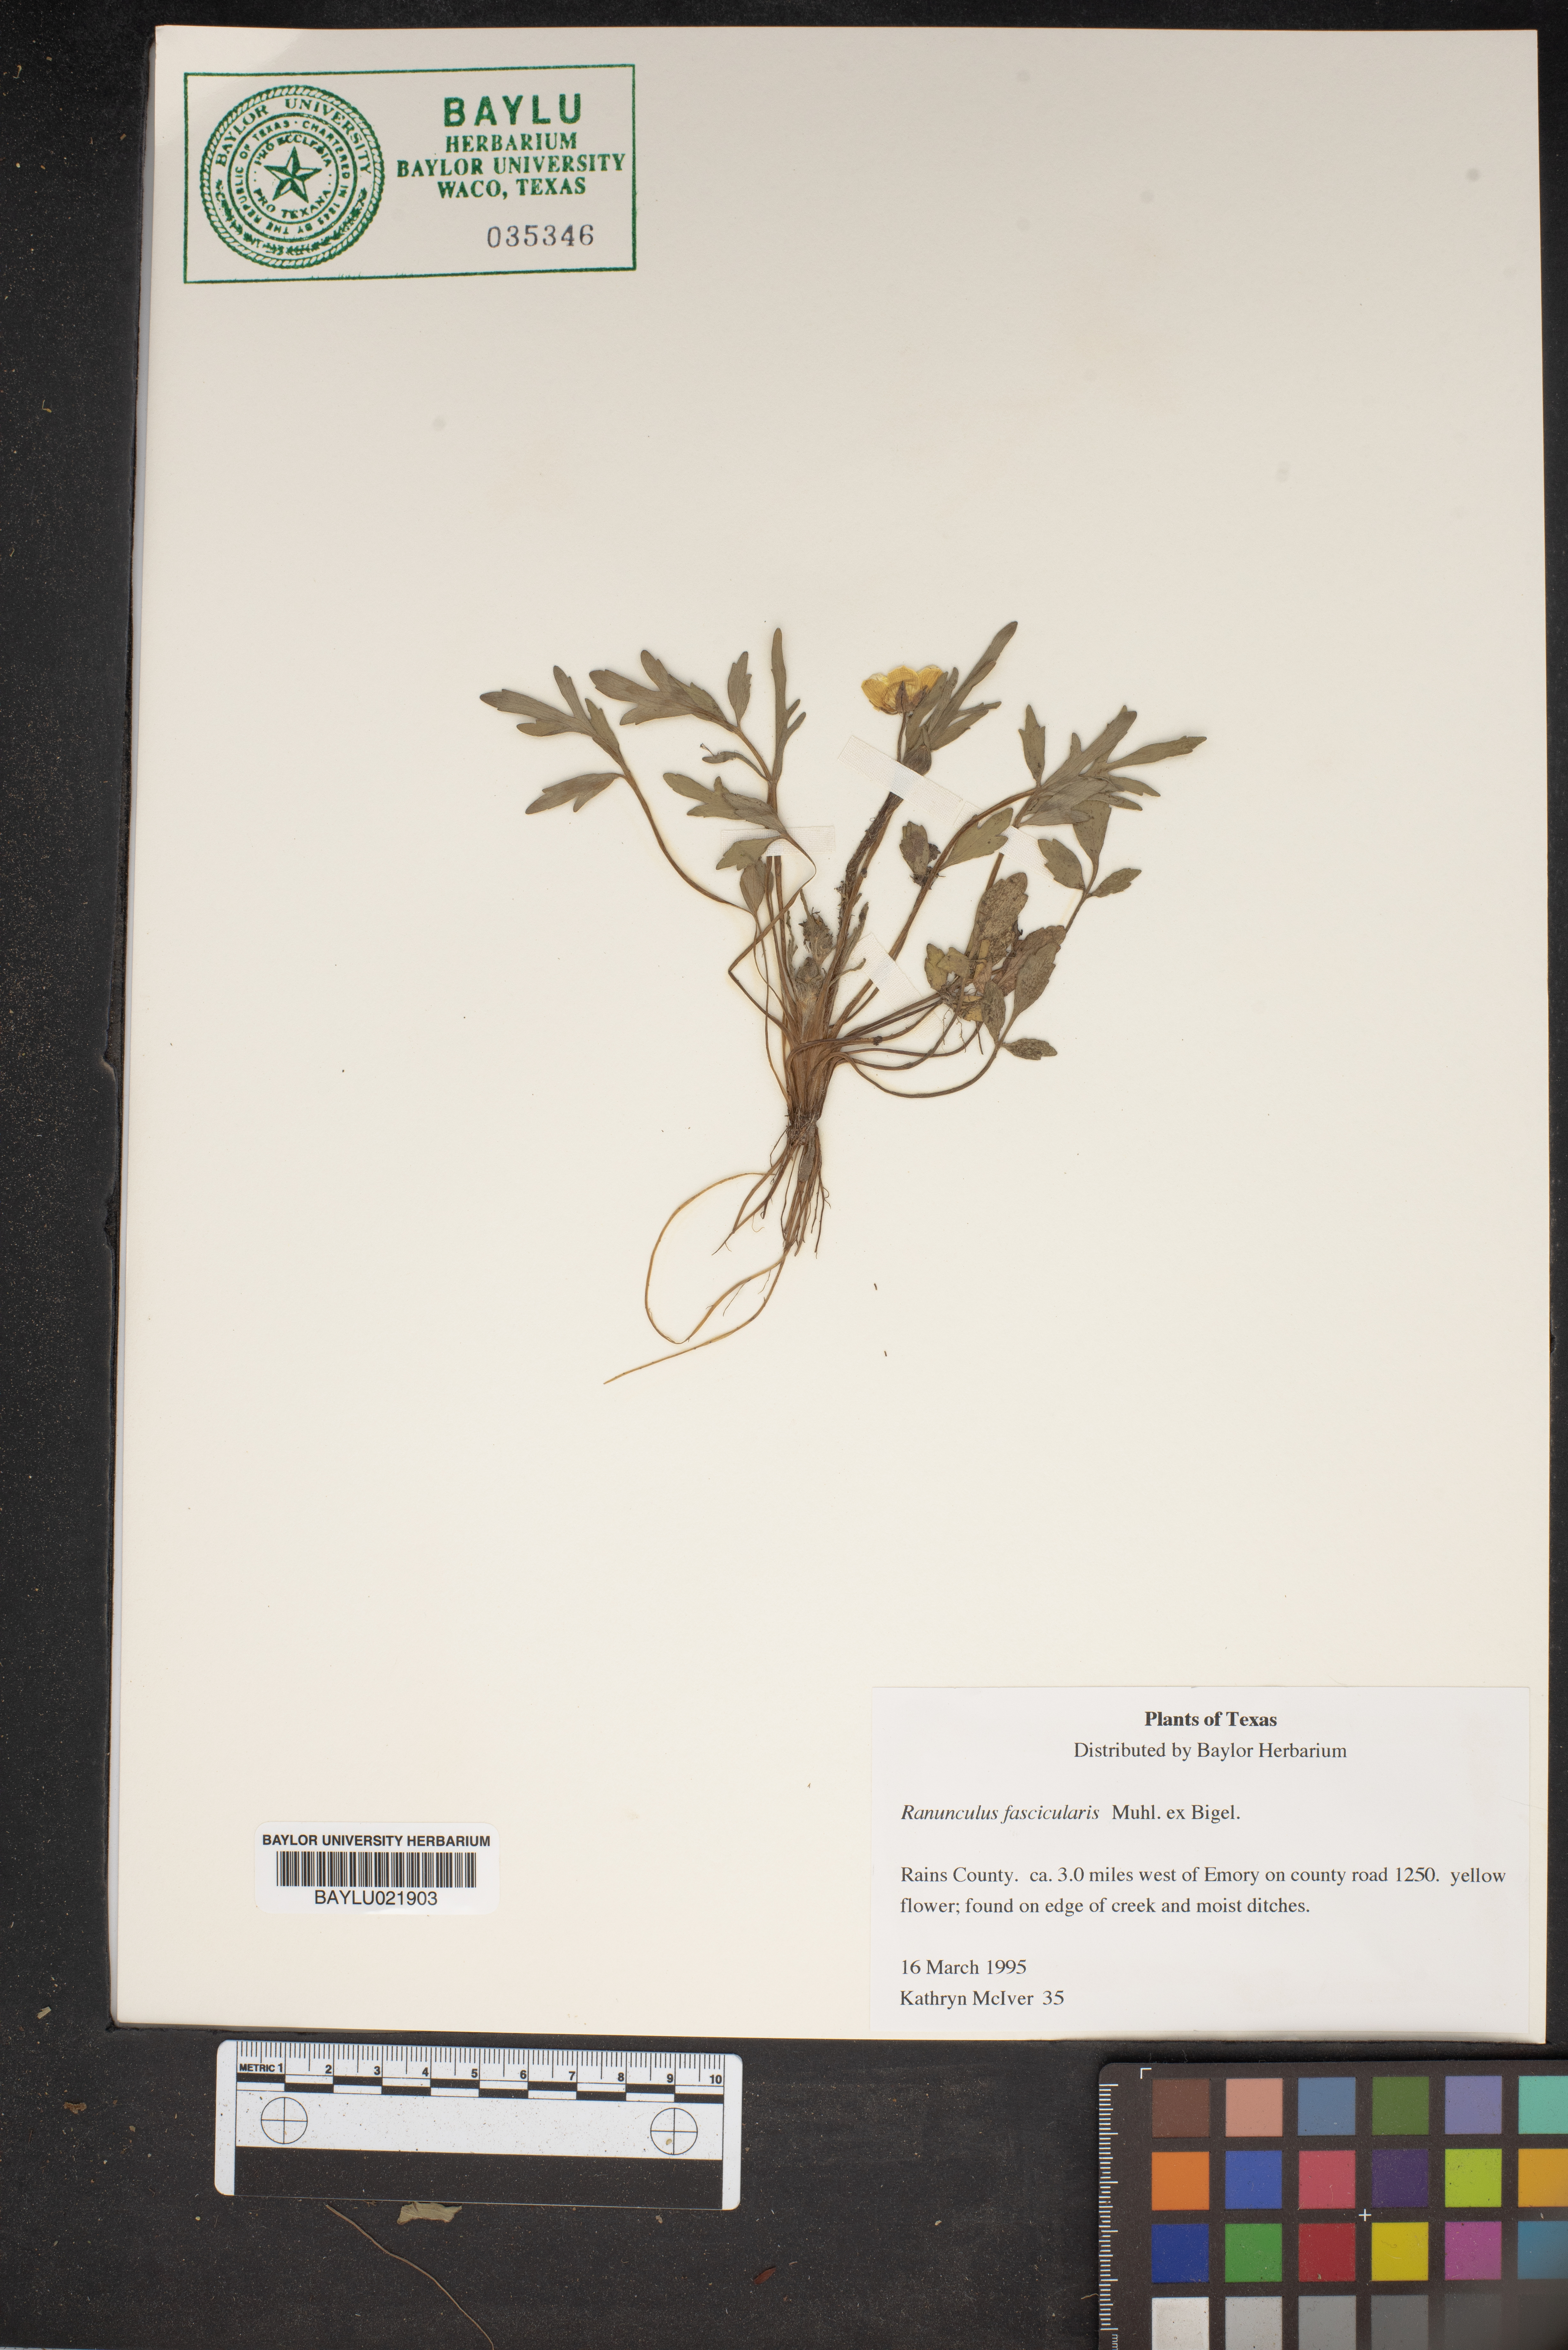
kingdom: Plantae
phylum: Tracheophyta
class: Magnoliopsida
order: Ranunculales
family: Ranunculaceae
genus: Ranunculus
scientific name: Ranunculus fascicularis
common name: Early buttercup
